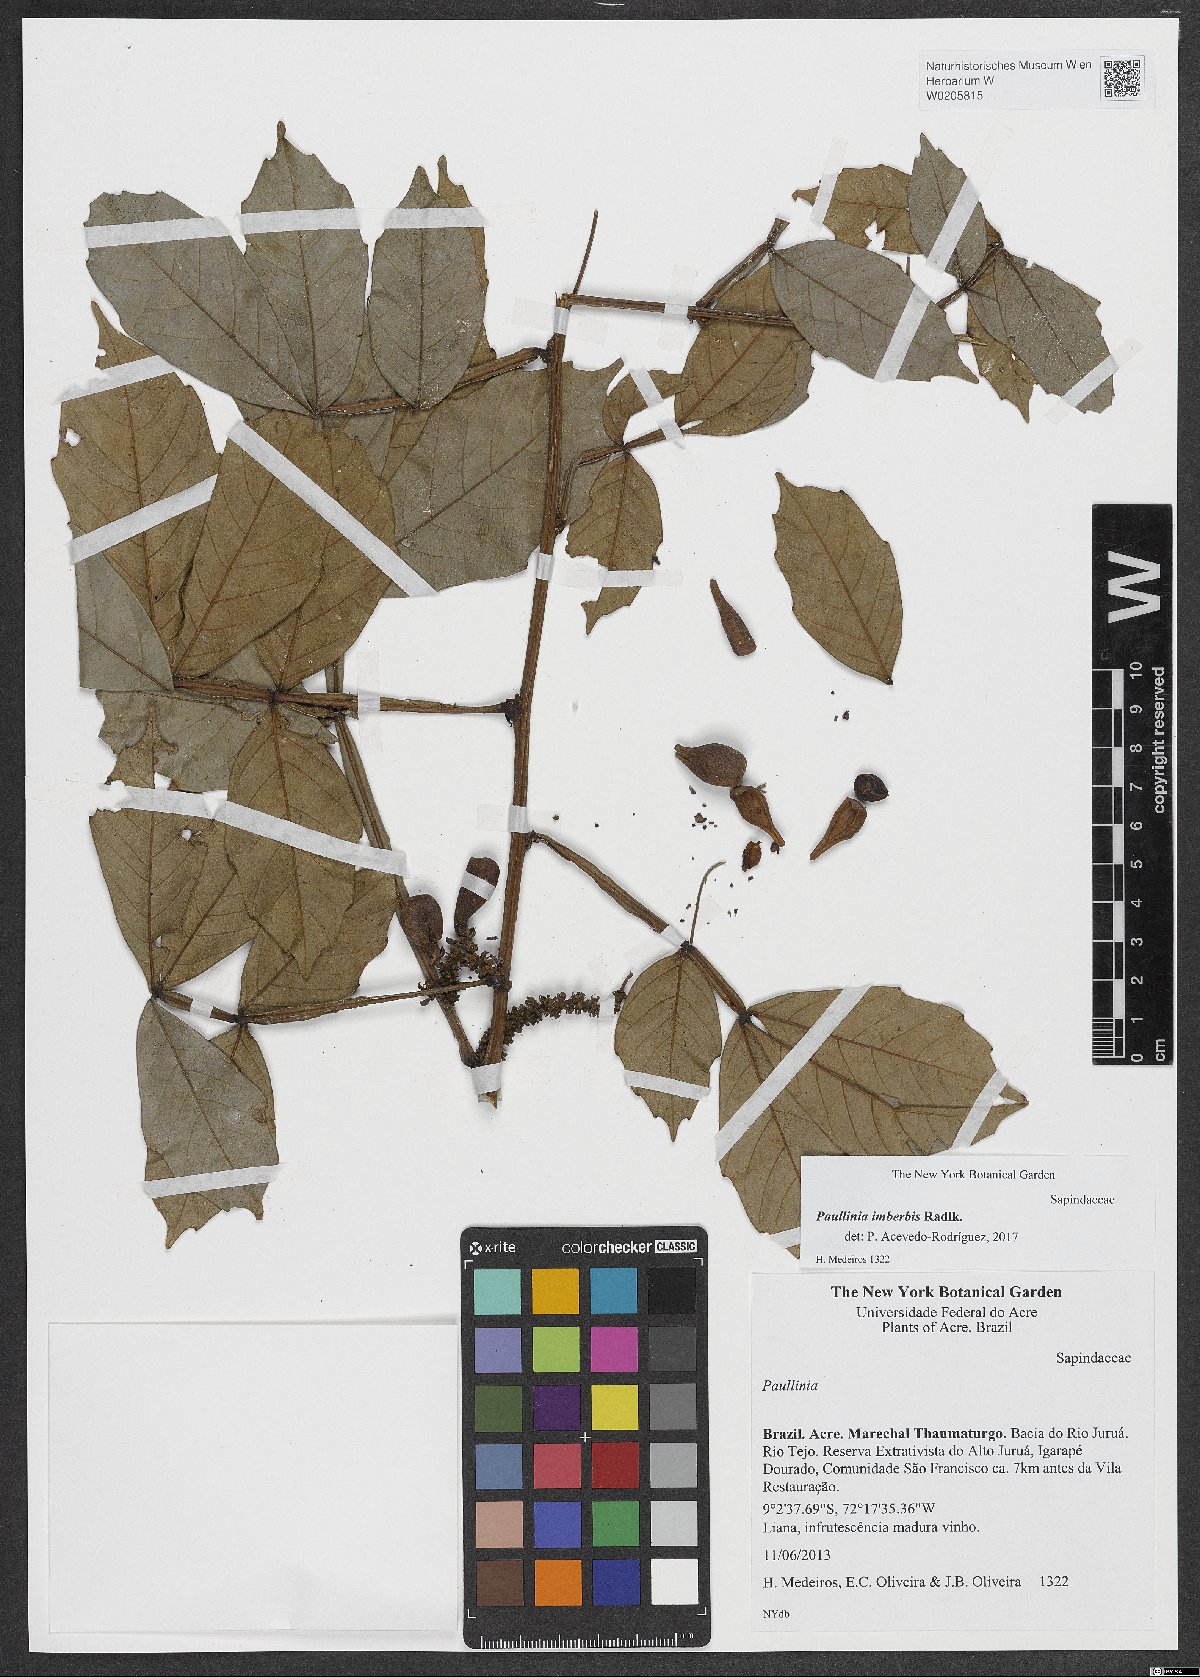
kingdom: Plantae
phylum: Tracheophyta
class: Magnoliopsida
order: Sapindales
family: Sapindaceae
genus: Paullinia
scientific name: Paullinia imberbis
